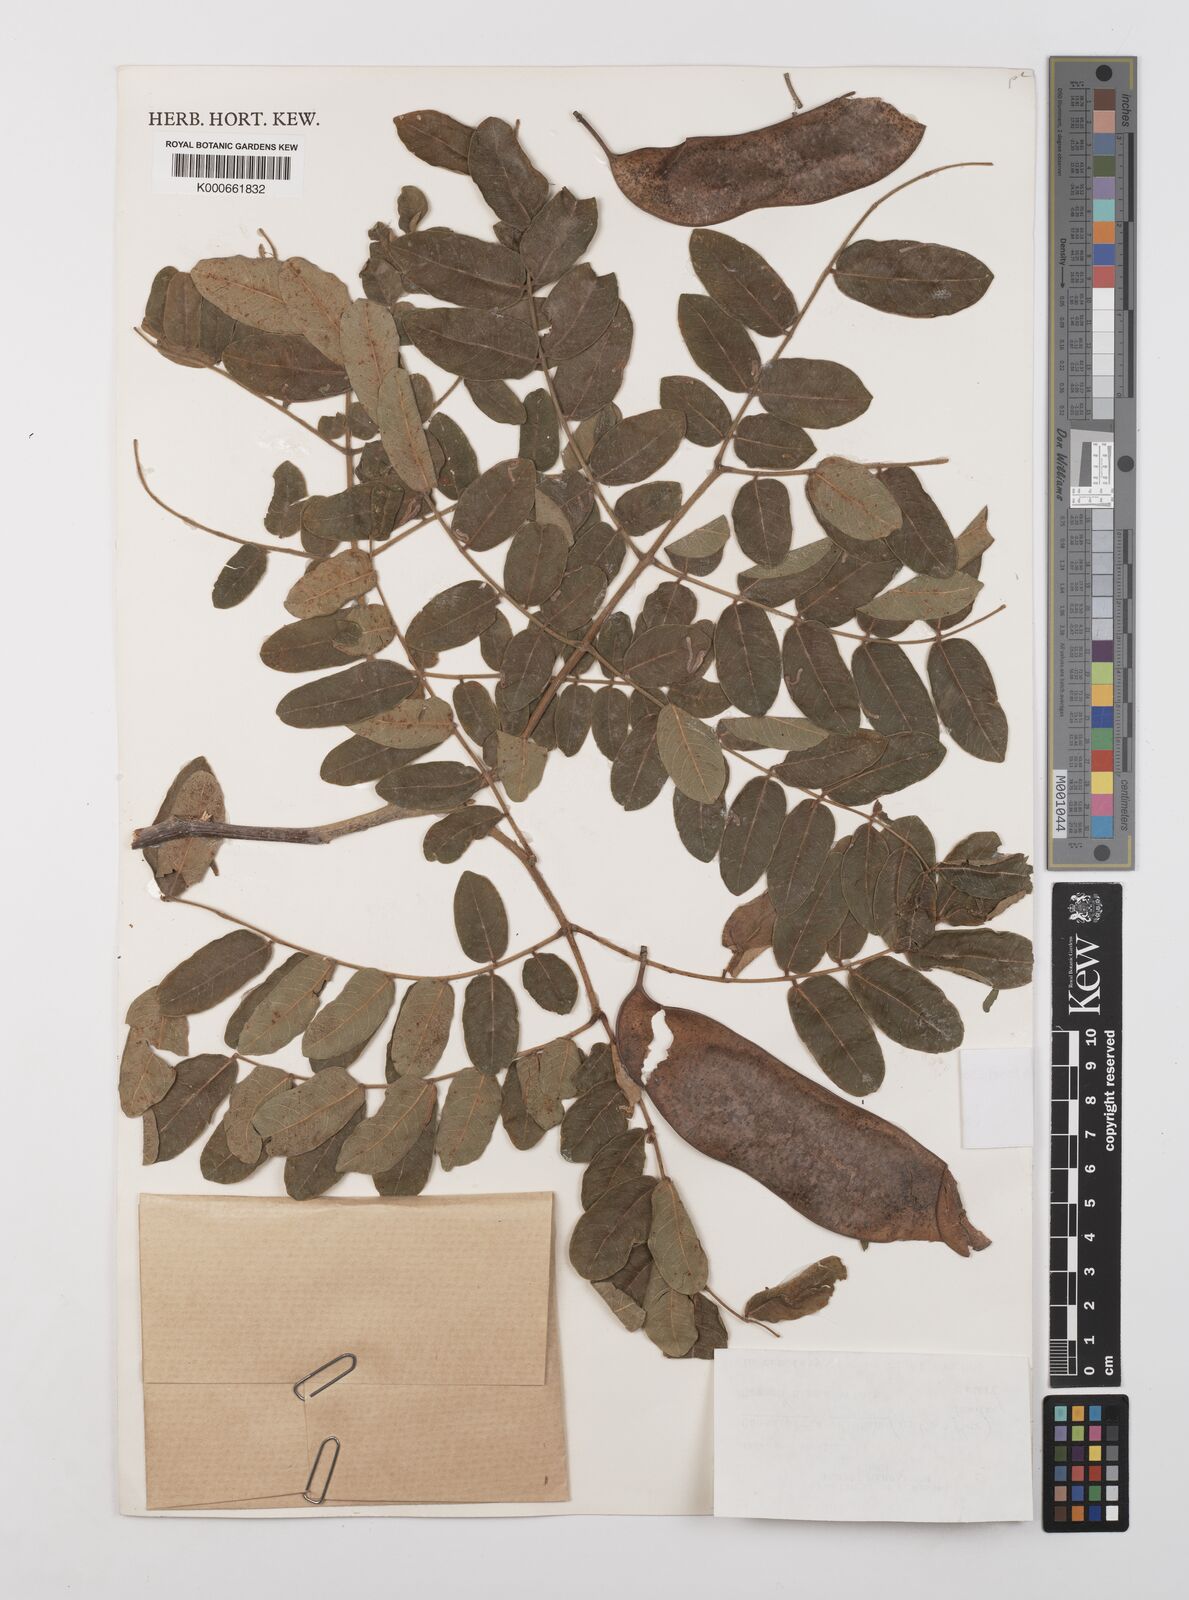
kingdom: Plantae
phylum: Tracheophyta
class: Magnoliopsida
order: Fabales
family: Fabaceae
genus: Coulteria
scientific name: Coulteria velutina
